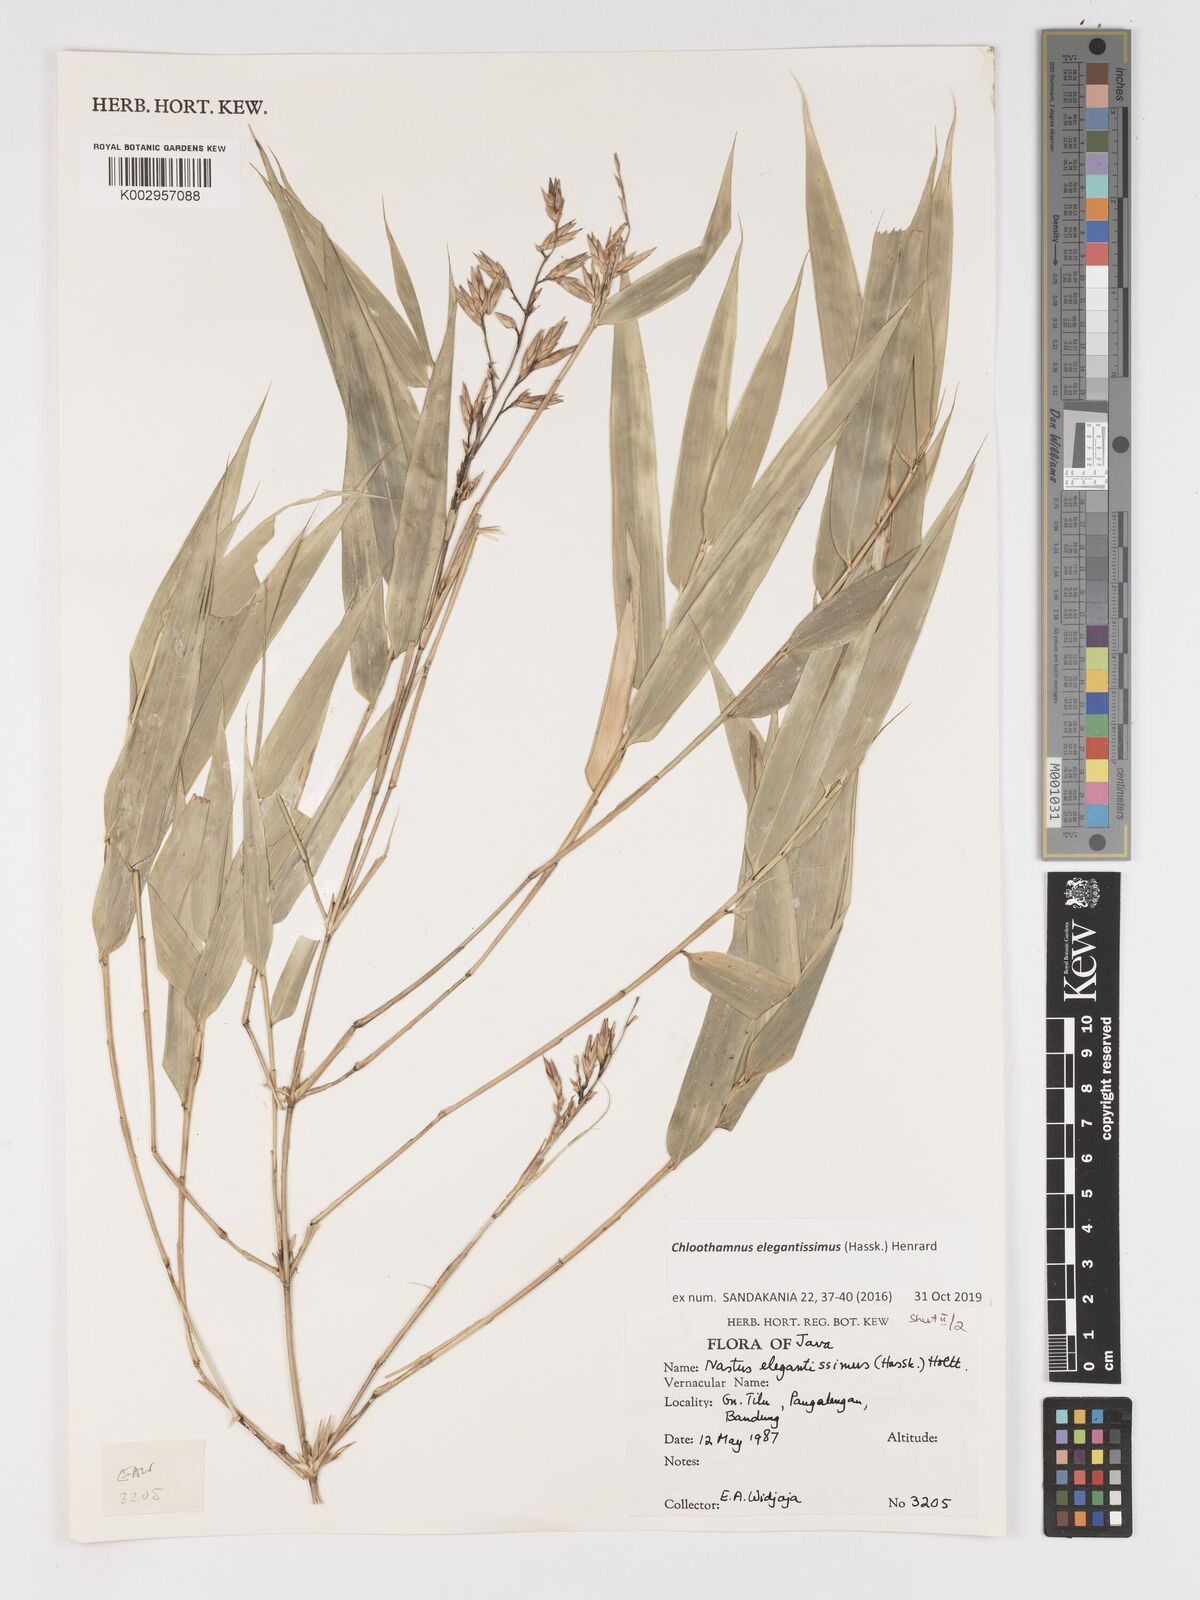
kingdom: Plantae
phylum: Tracheophyta
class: Liliopsida
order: Poales
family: Poaceae
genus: Chloothamnus
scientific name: Chloothamnus elegantissimus
